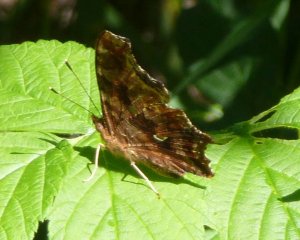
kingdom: Animalia
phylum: Arthropoda
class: Insecta
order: Lepidoptera
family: Nymphalidae
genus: Polygonia
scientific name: Polygonia comma
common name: Eastern Comma
